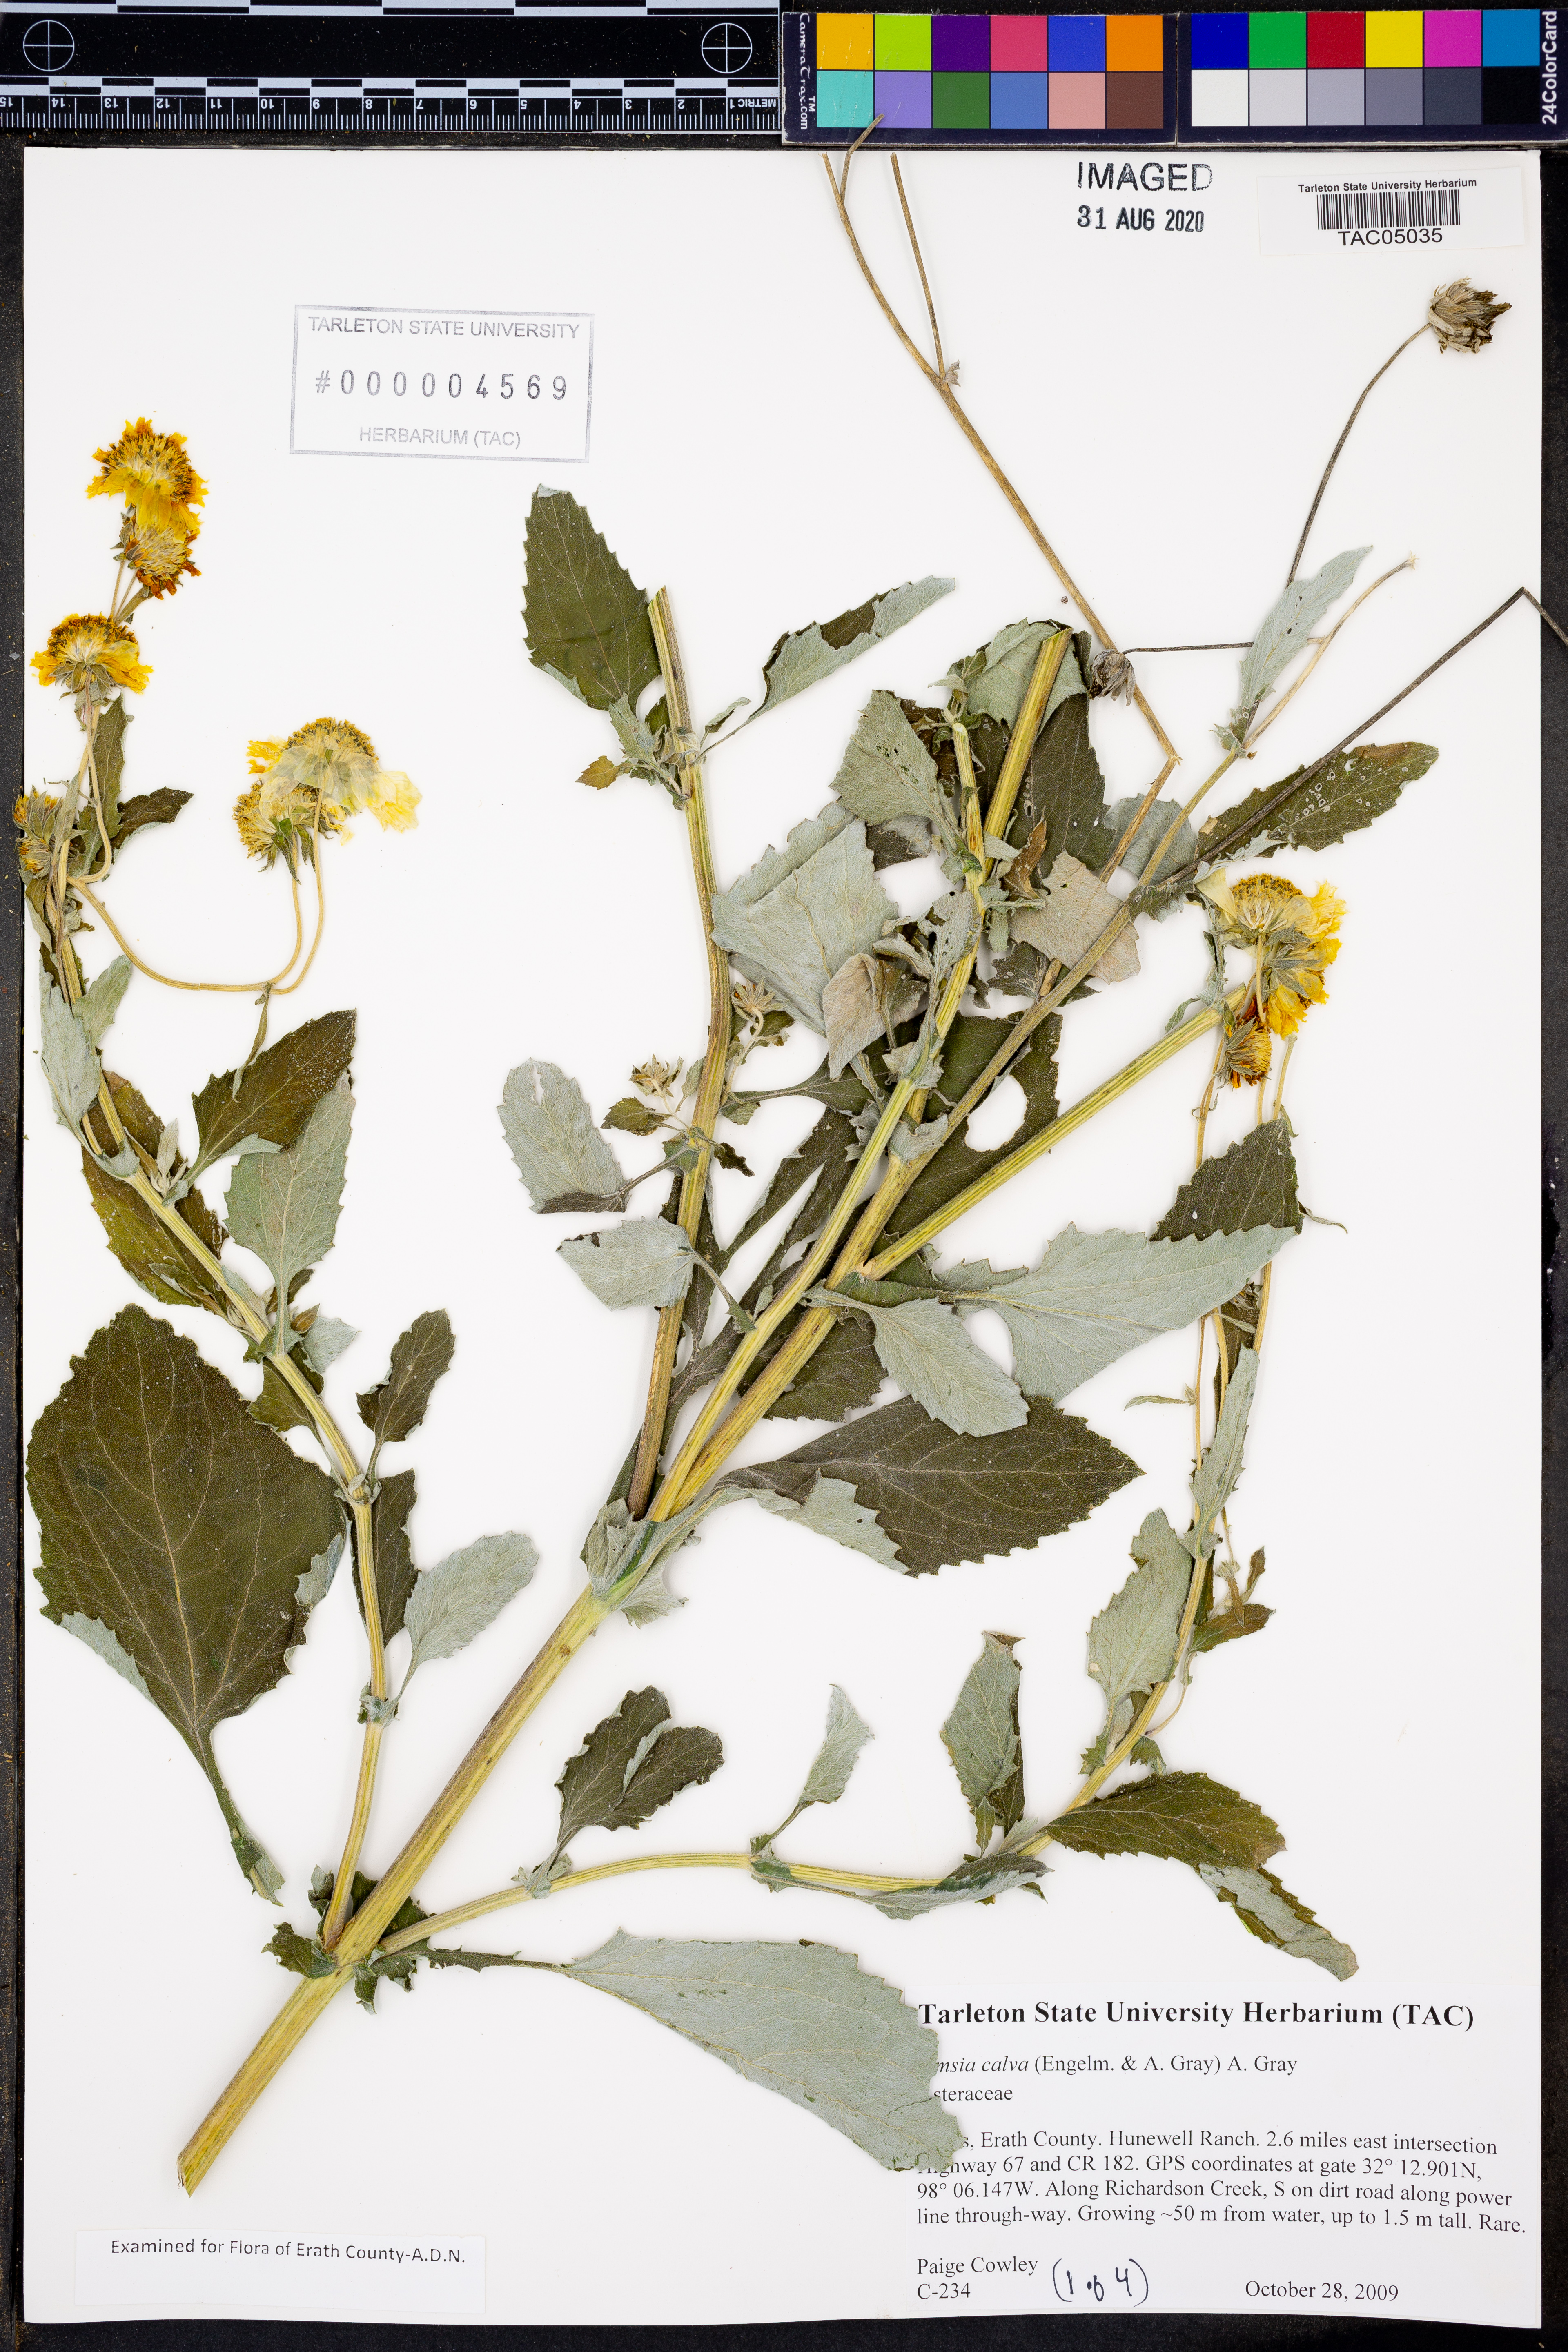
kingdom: Plantae
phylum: Tracheophyta
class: Magnoliopsida
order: Asterales
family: Asteraceae
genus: Simsia
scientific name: Simsia calva
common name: Awnless bush-sunflower
